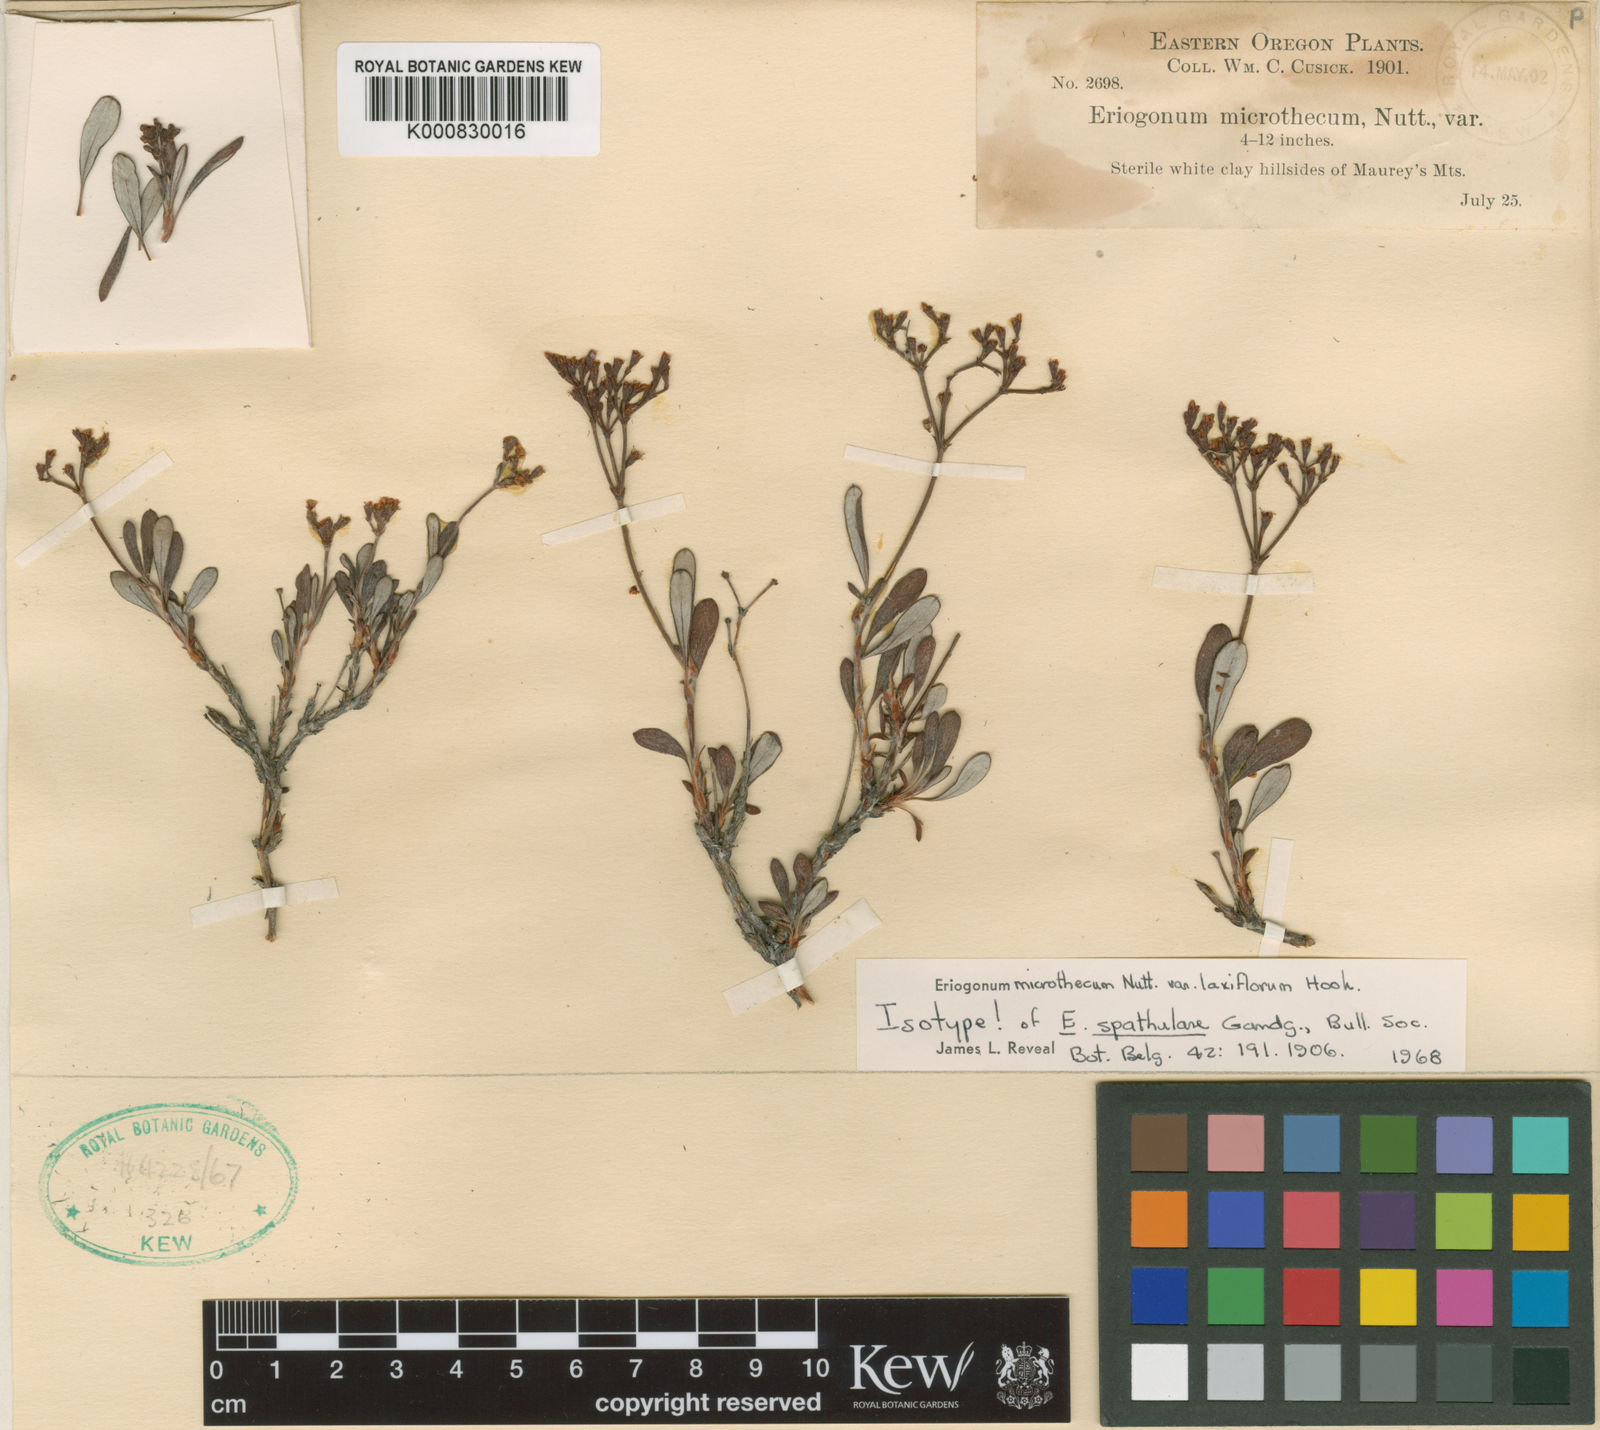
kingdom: Plantae
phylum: Tracheophyta
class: Magnoliopsida
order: Caryophyllales
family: Polygonaceae
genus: Eriogonum
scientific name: Eriogonum microtheca
